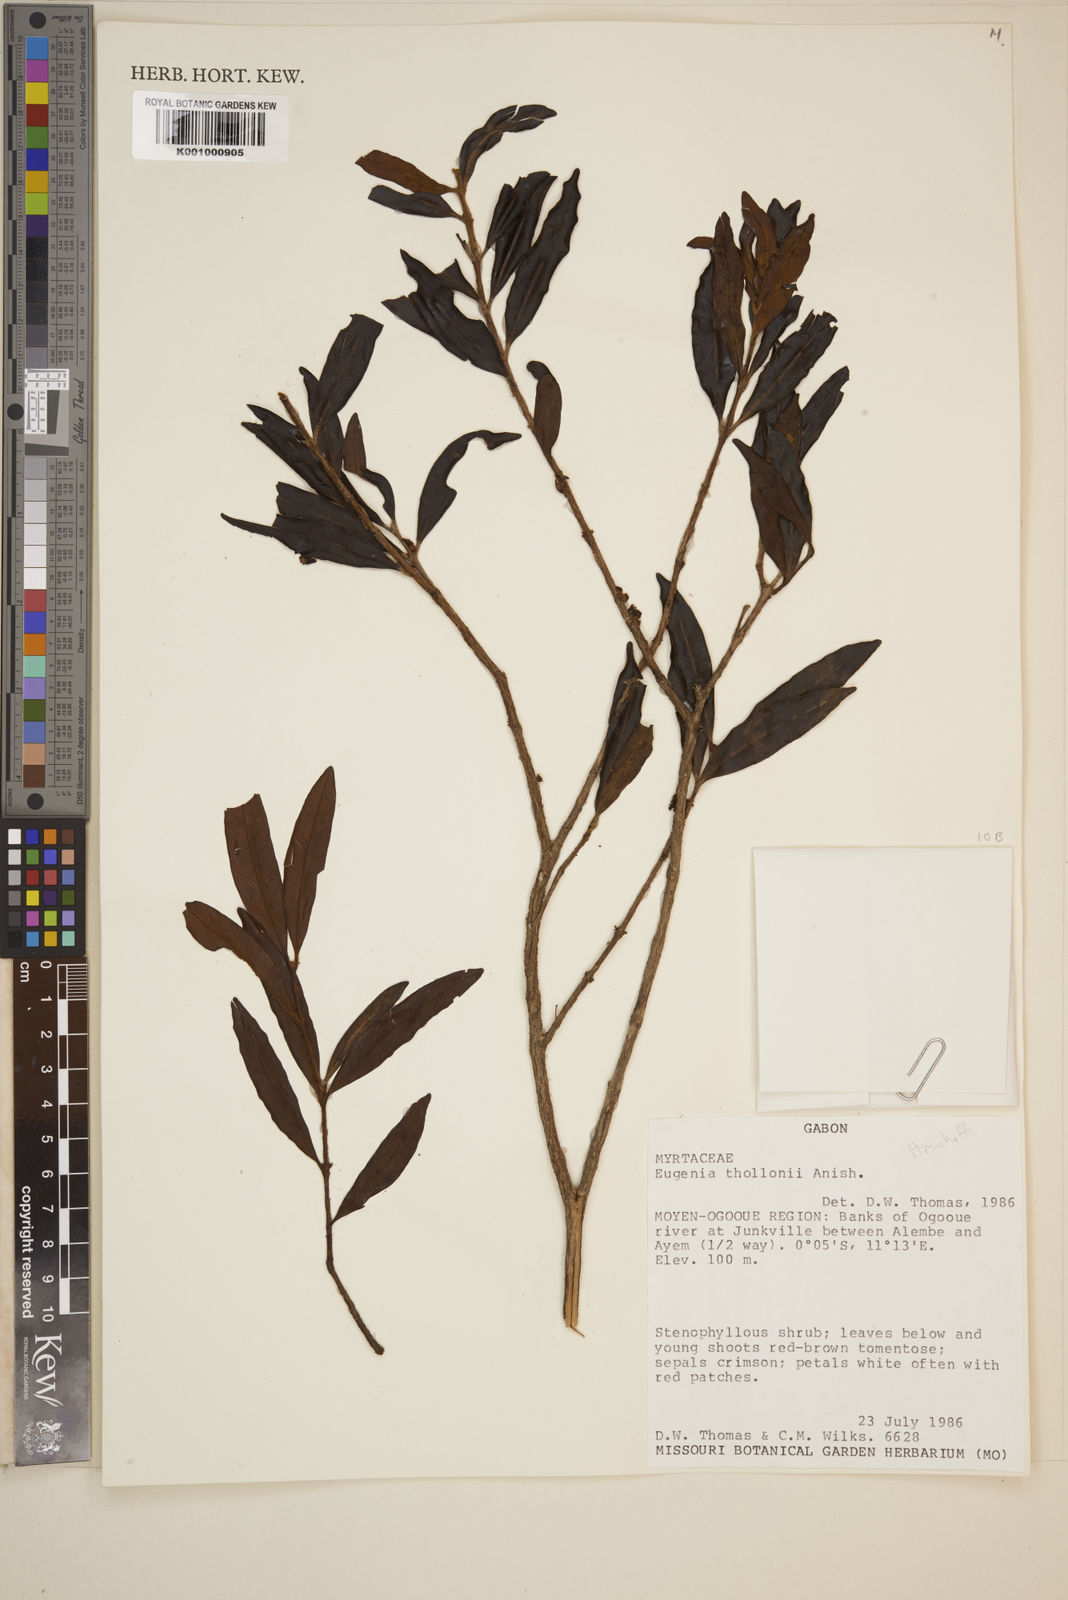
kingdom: Plantae
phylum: Tracheophyta
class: Magnoliopsida
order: Myrtales
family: Myrtaceae
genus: Eugenia
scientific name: Eugenia thollonii
